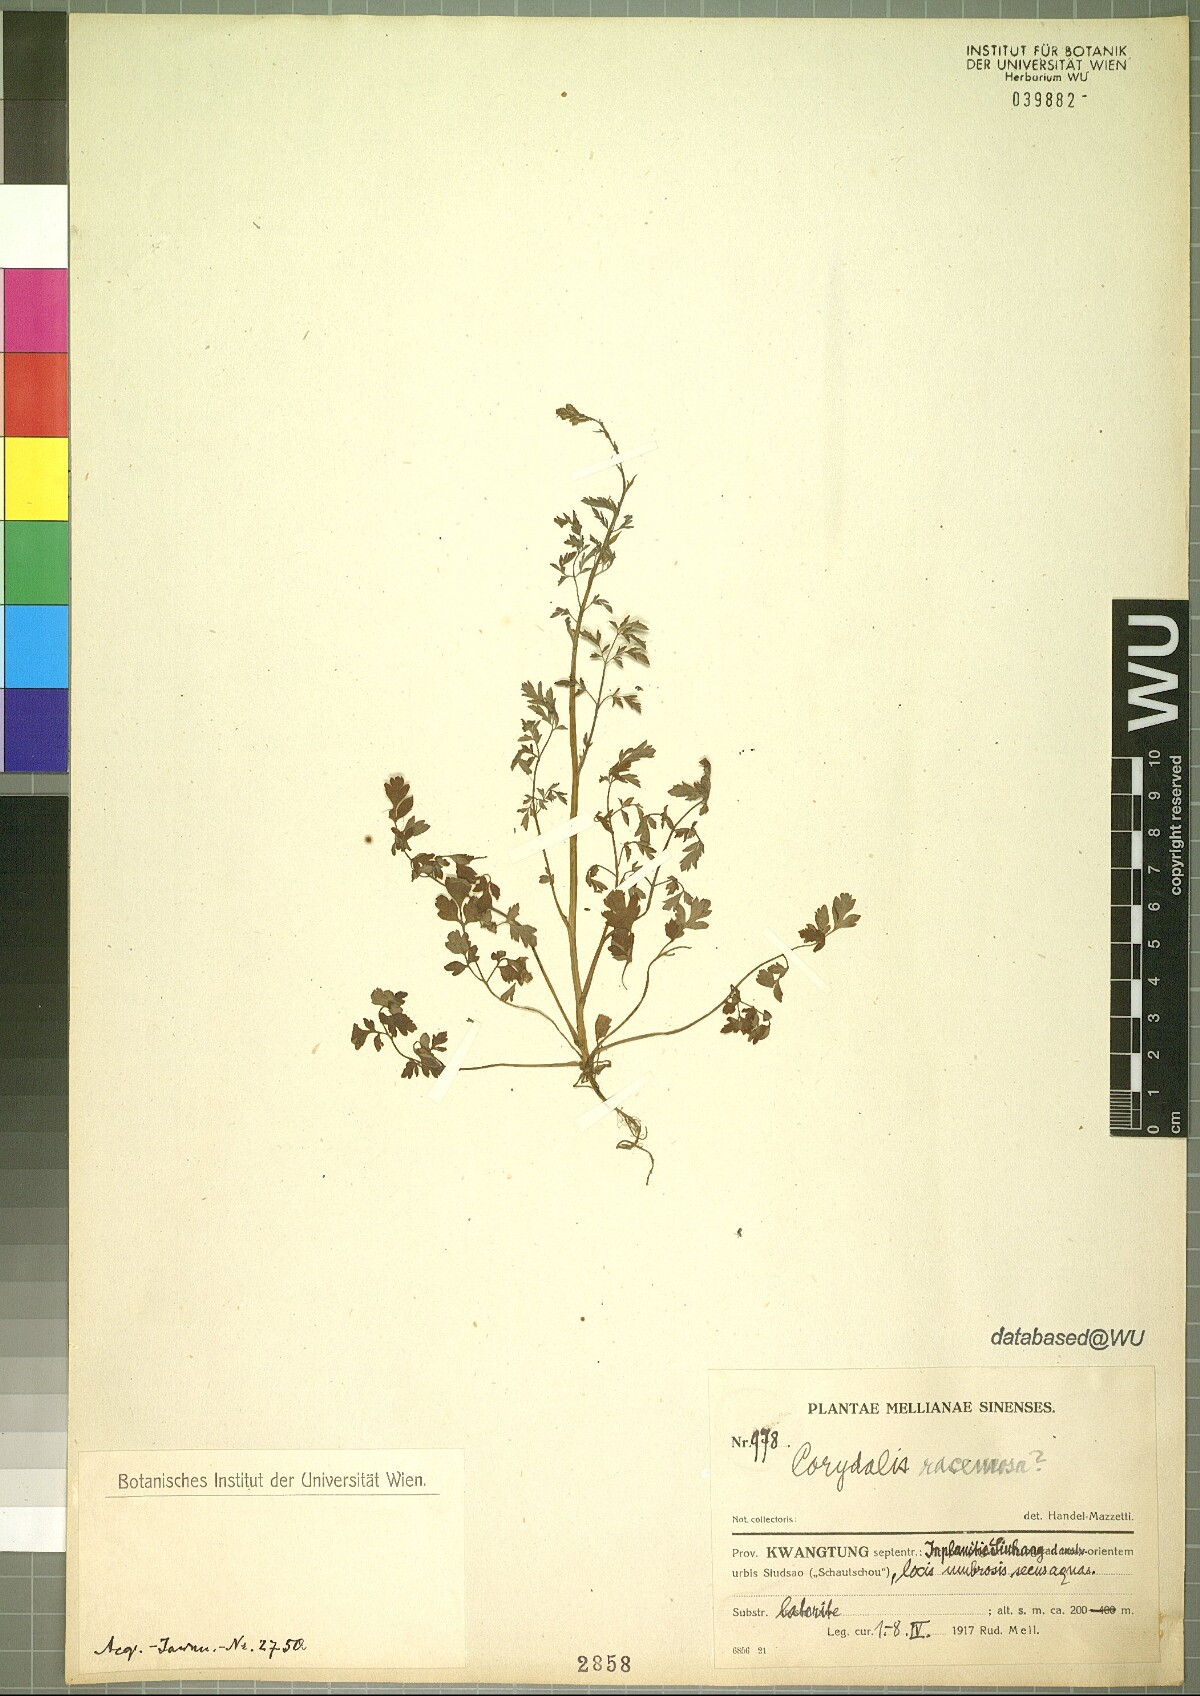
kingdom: Plantae
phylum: Tracheophyta
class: Magnoliopsida
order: Ranunculales
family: Papaveraceae
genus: Corydalis
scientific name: Corydalis racemosa
